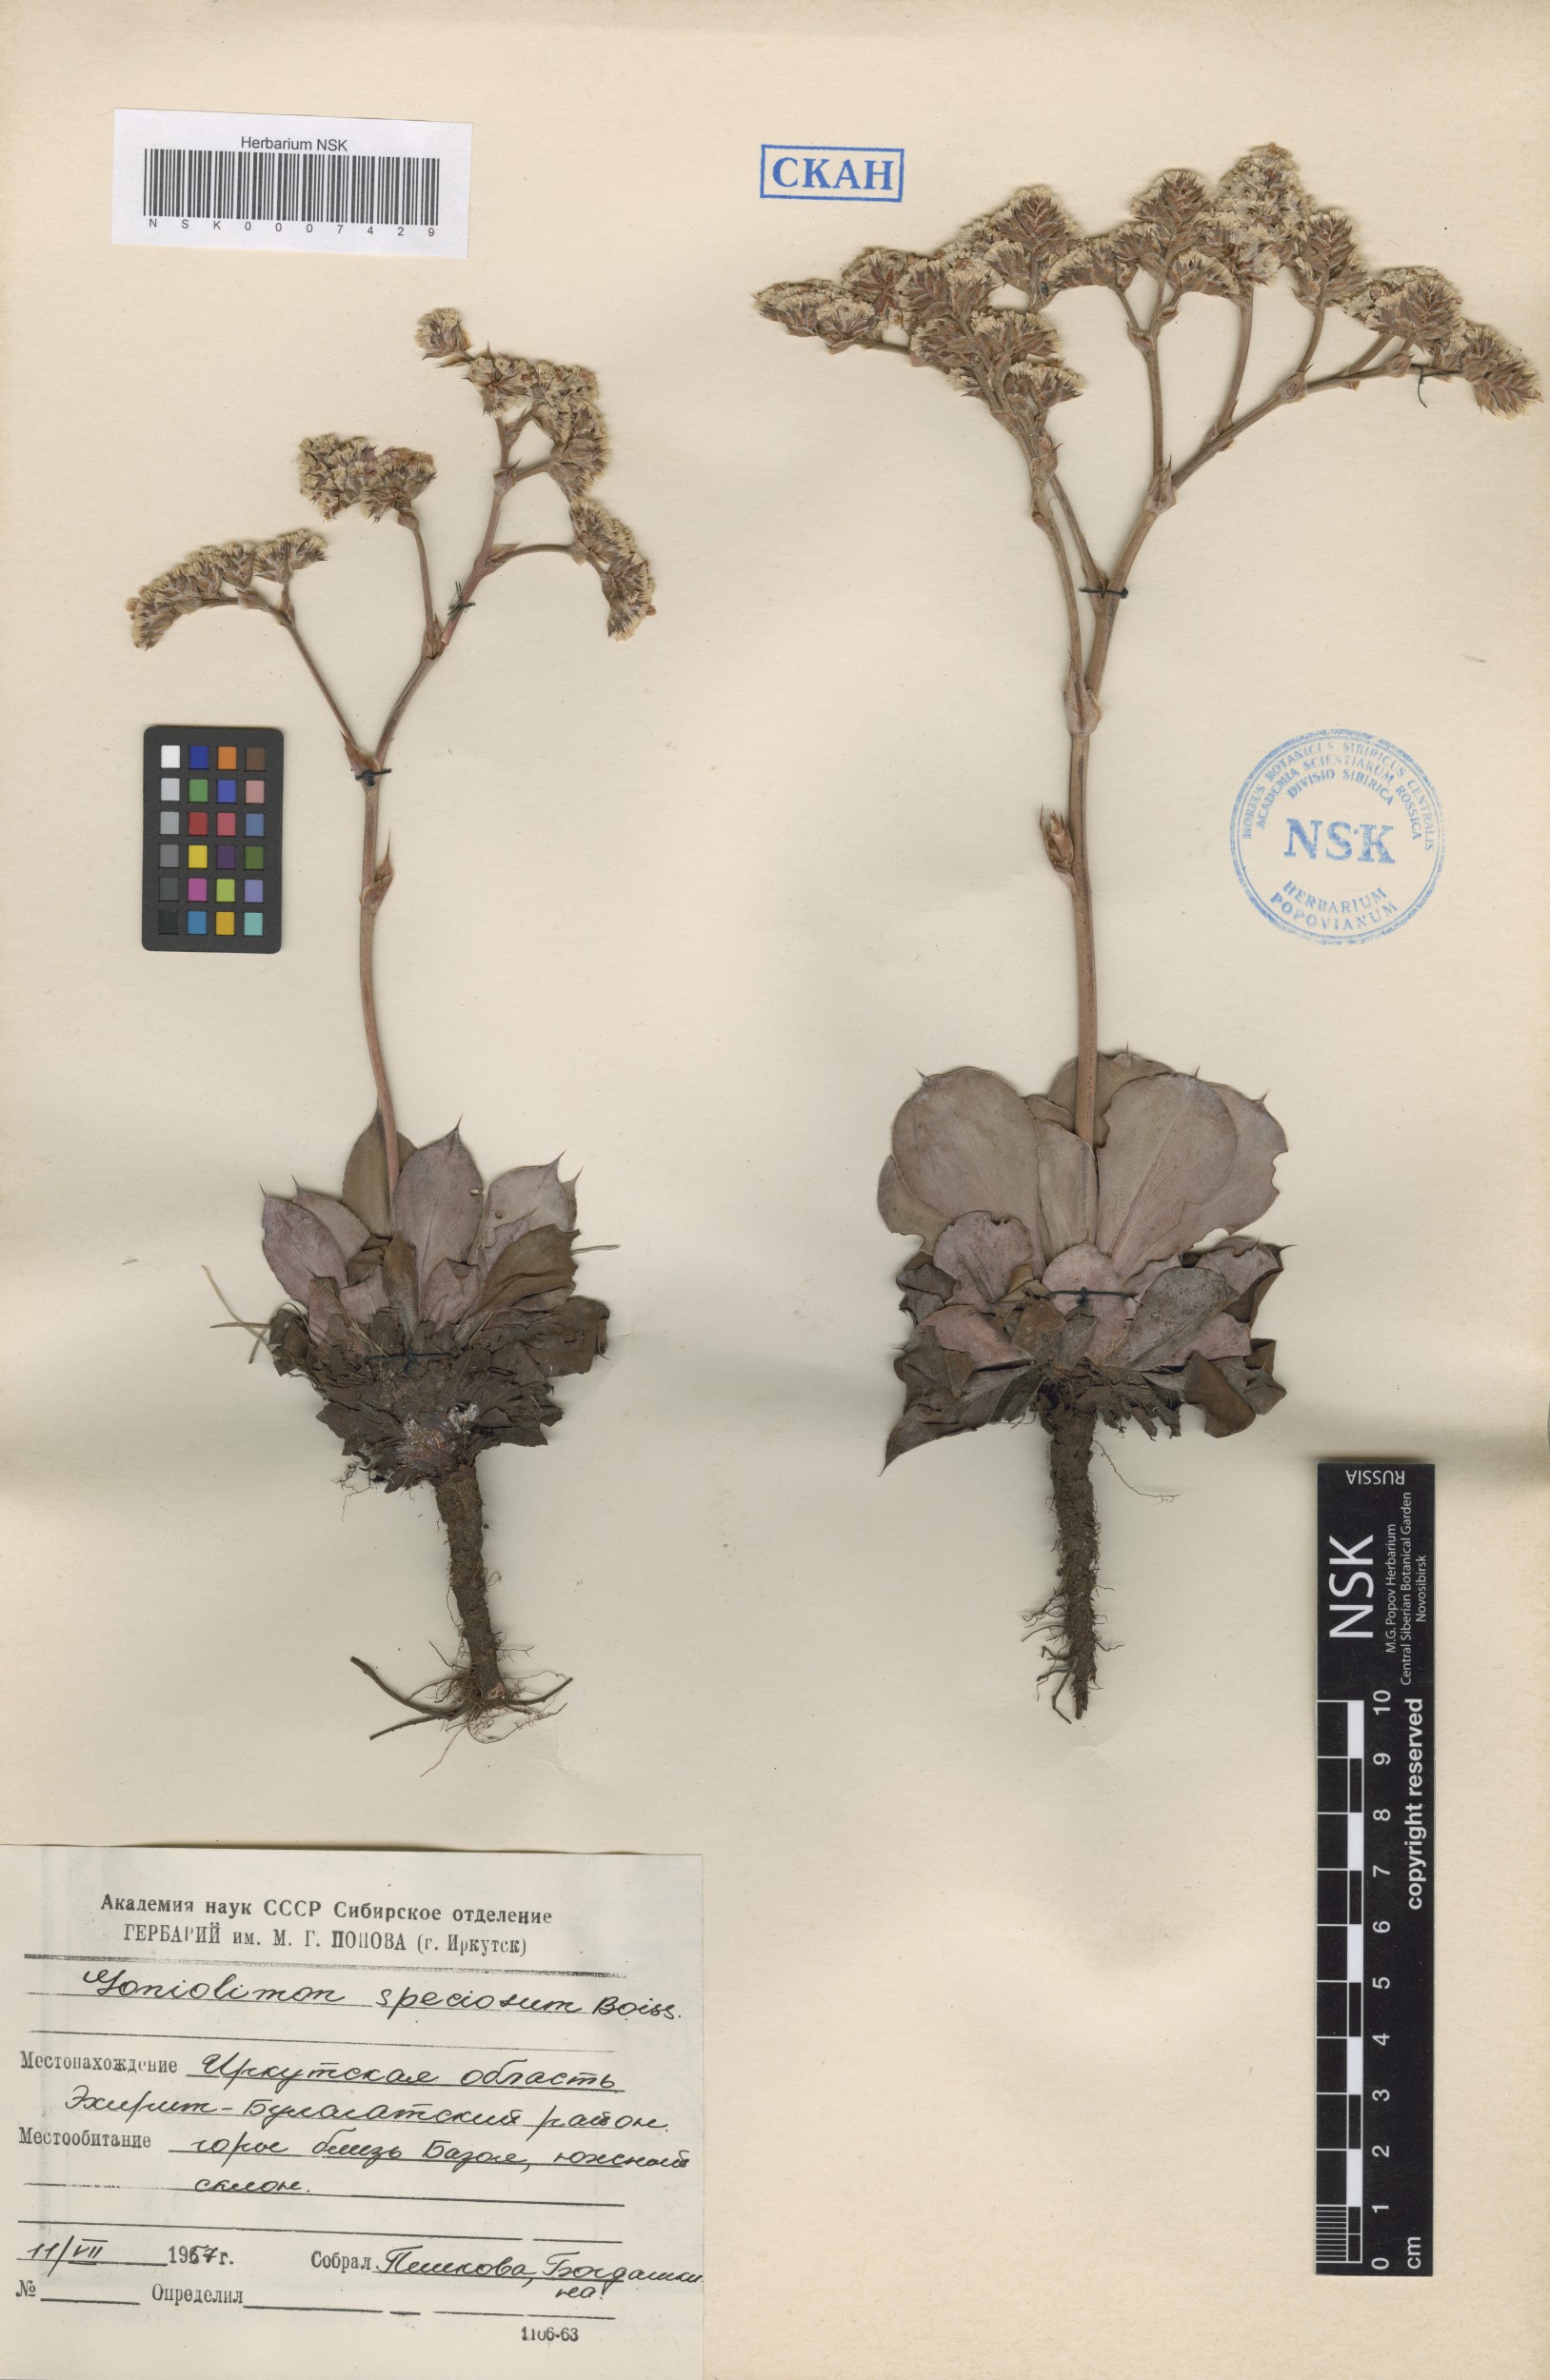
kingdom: Plantae
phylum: Tracheophyta
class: Magnoliopsida
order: Caryophyllales
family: Plumbaginaceae
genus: Goniolimon
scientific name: Goniolimon speciosum
